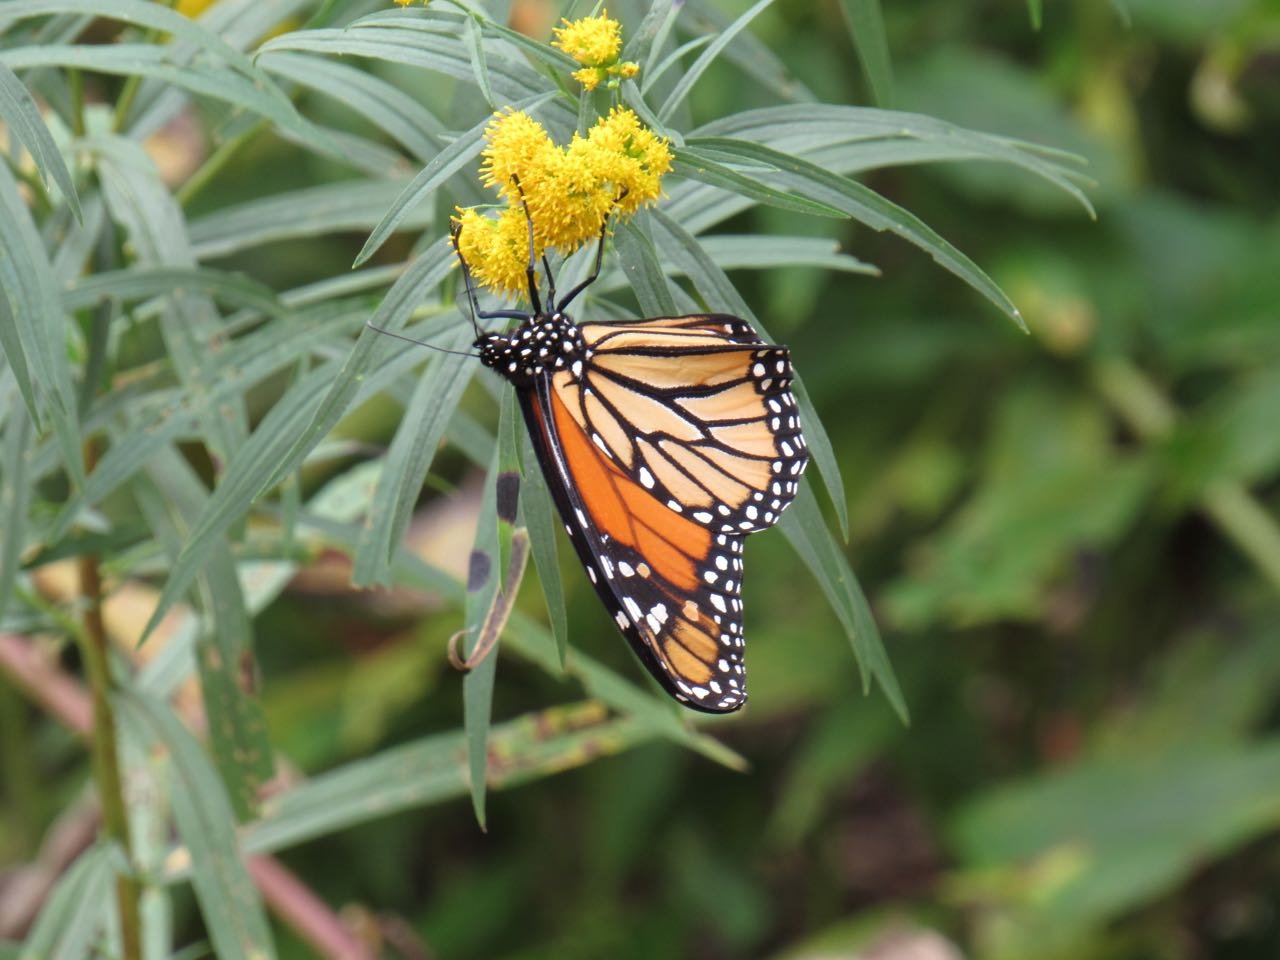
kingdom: Animalia
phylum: Arthropoda
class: Insecta
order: Lepidoptera
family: Nymphalidae
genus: Danaus
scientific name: Danaus plexippus
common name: Monarch
